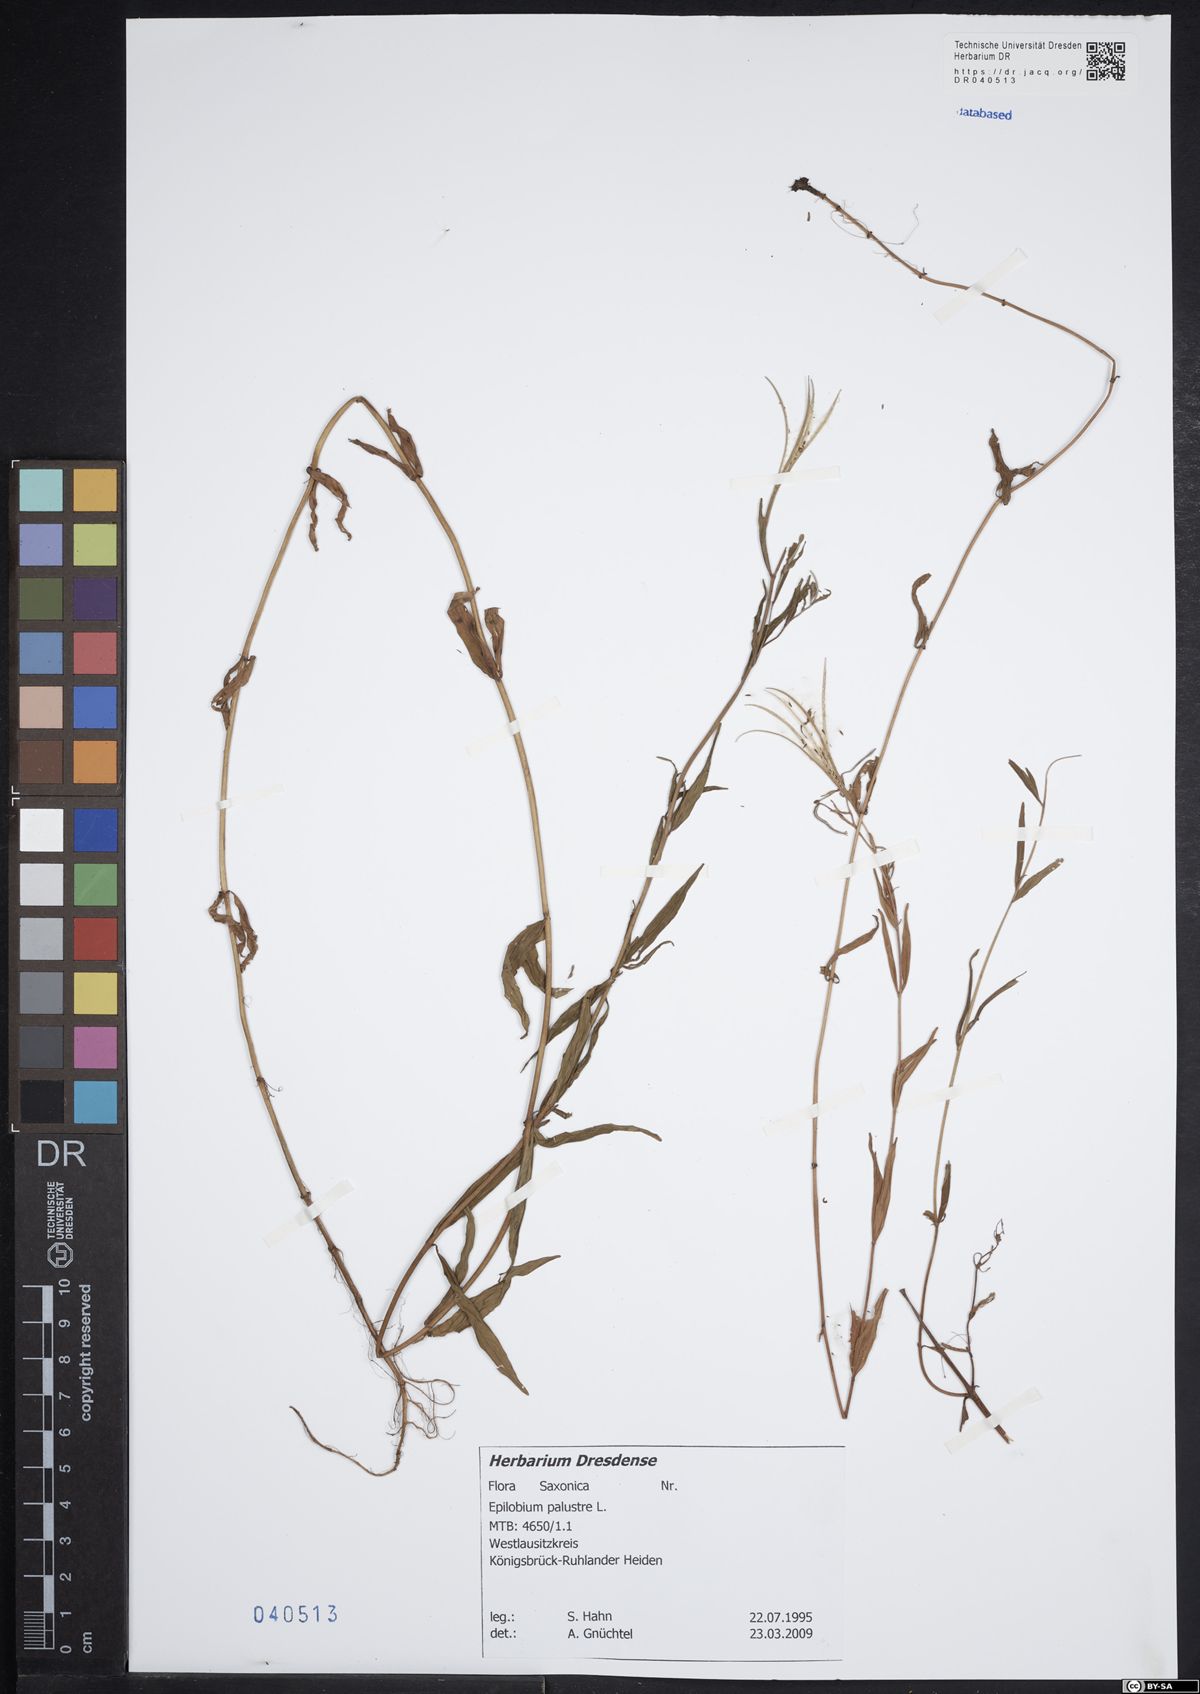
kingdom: Plantae
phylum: Tracheophyta
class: Magnoliopsida
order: Myrtales
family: Onagraceae
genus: Epilobium
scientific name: Epilobium palustre
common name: Marsh willowherb
